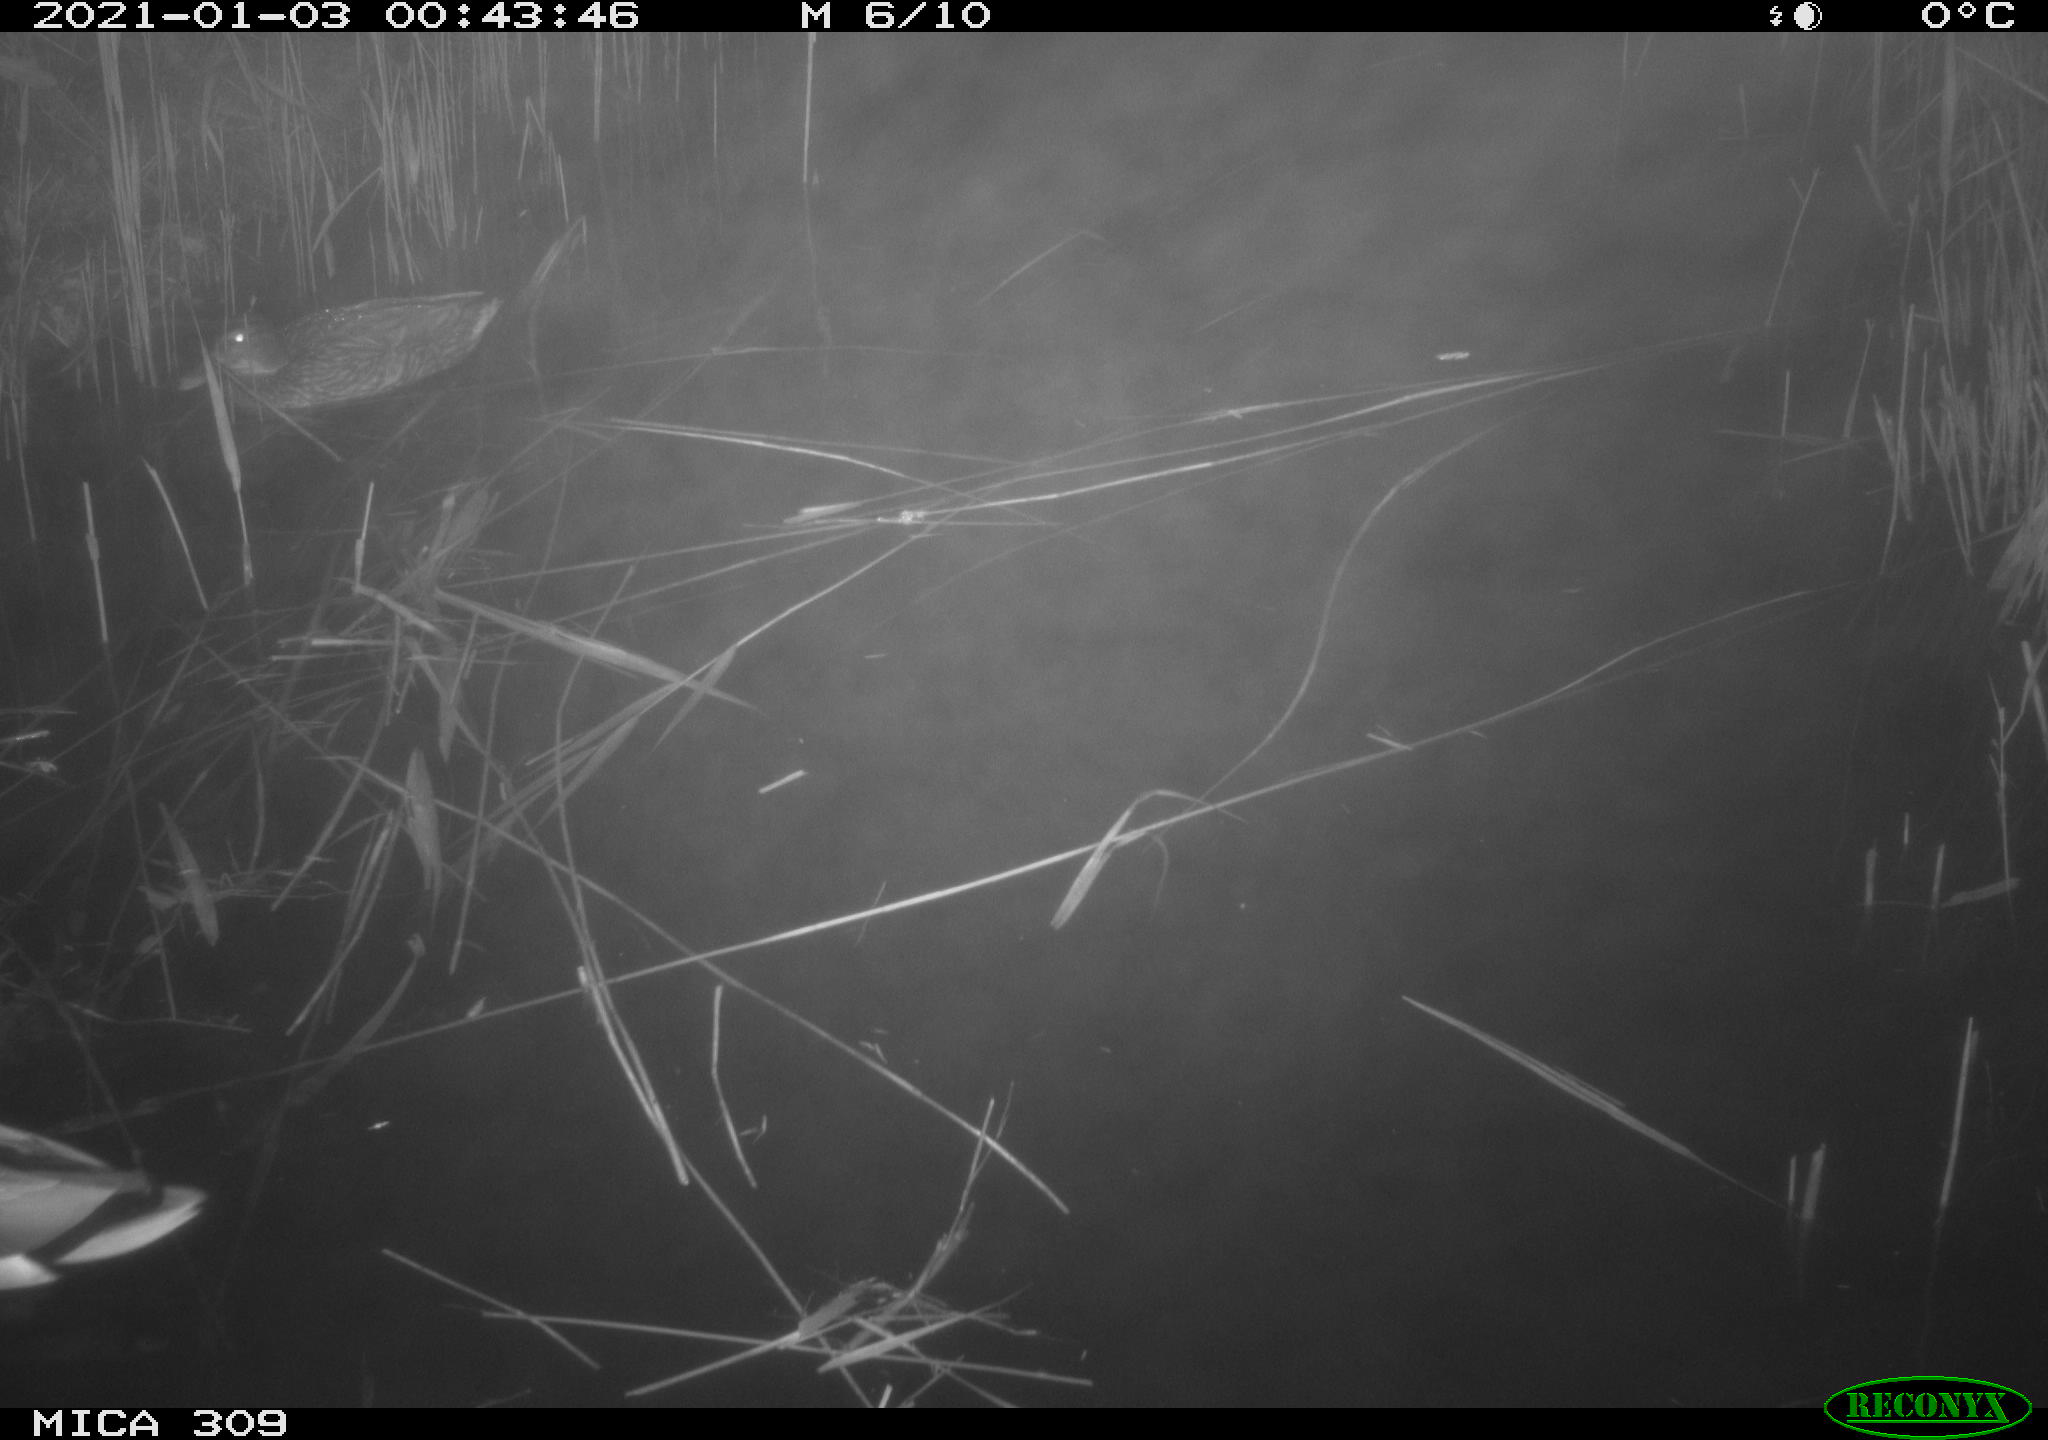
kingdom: Animalia
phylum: Chordata
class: Aves
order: Gruiformes
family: Rallidae
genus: Gallinula
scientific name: Gallinula chloropus
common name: Common moorhen
